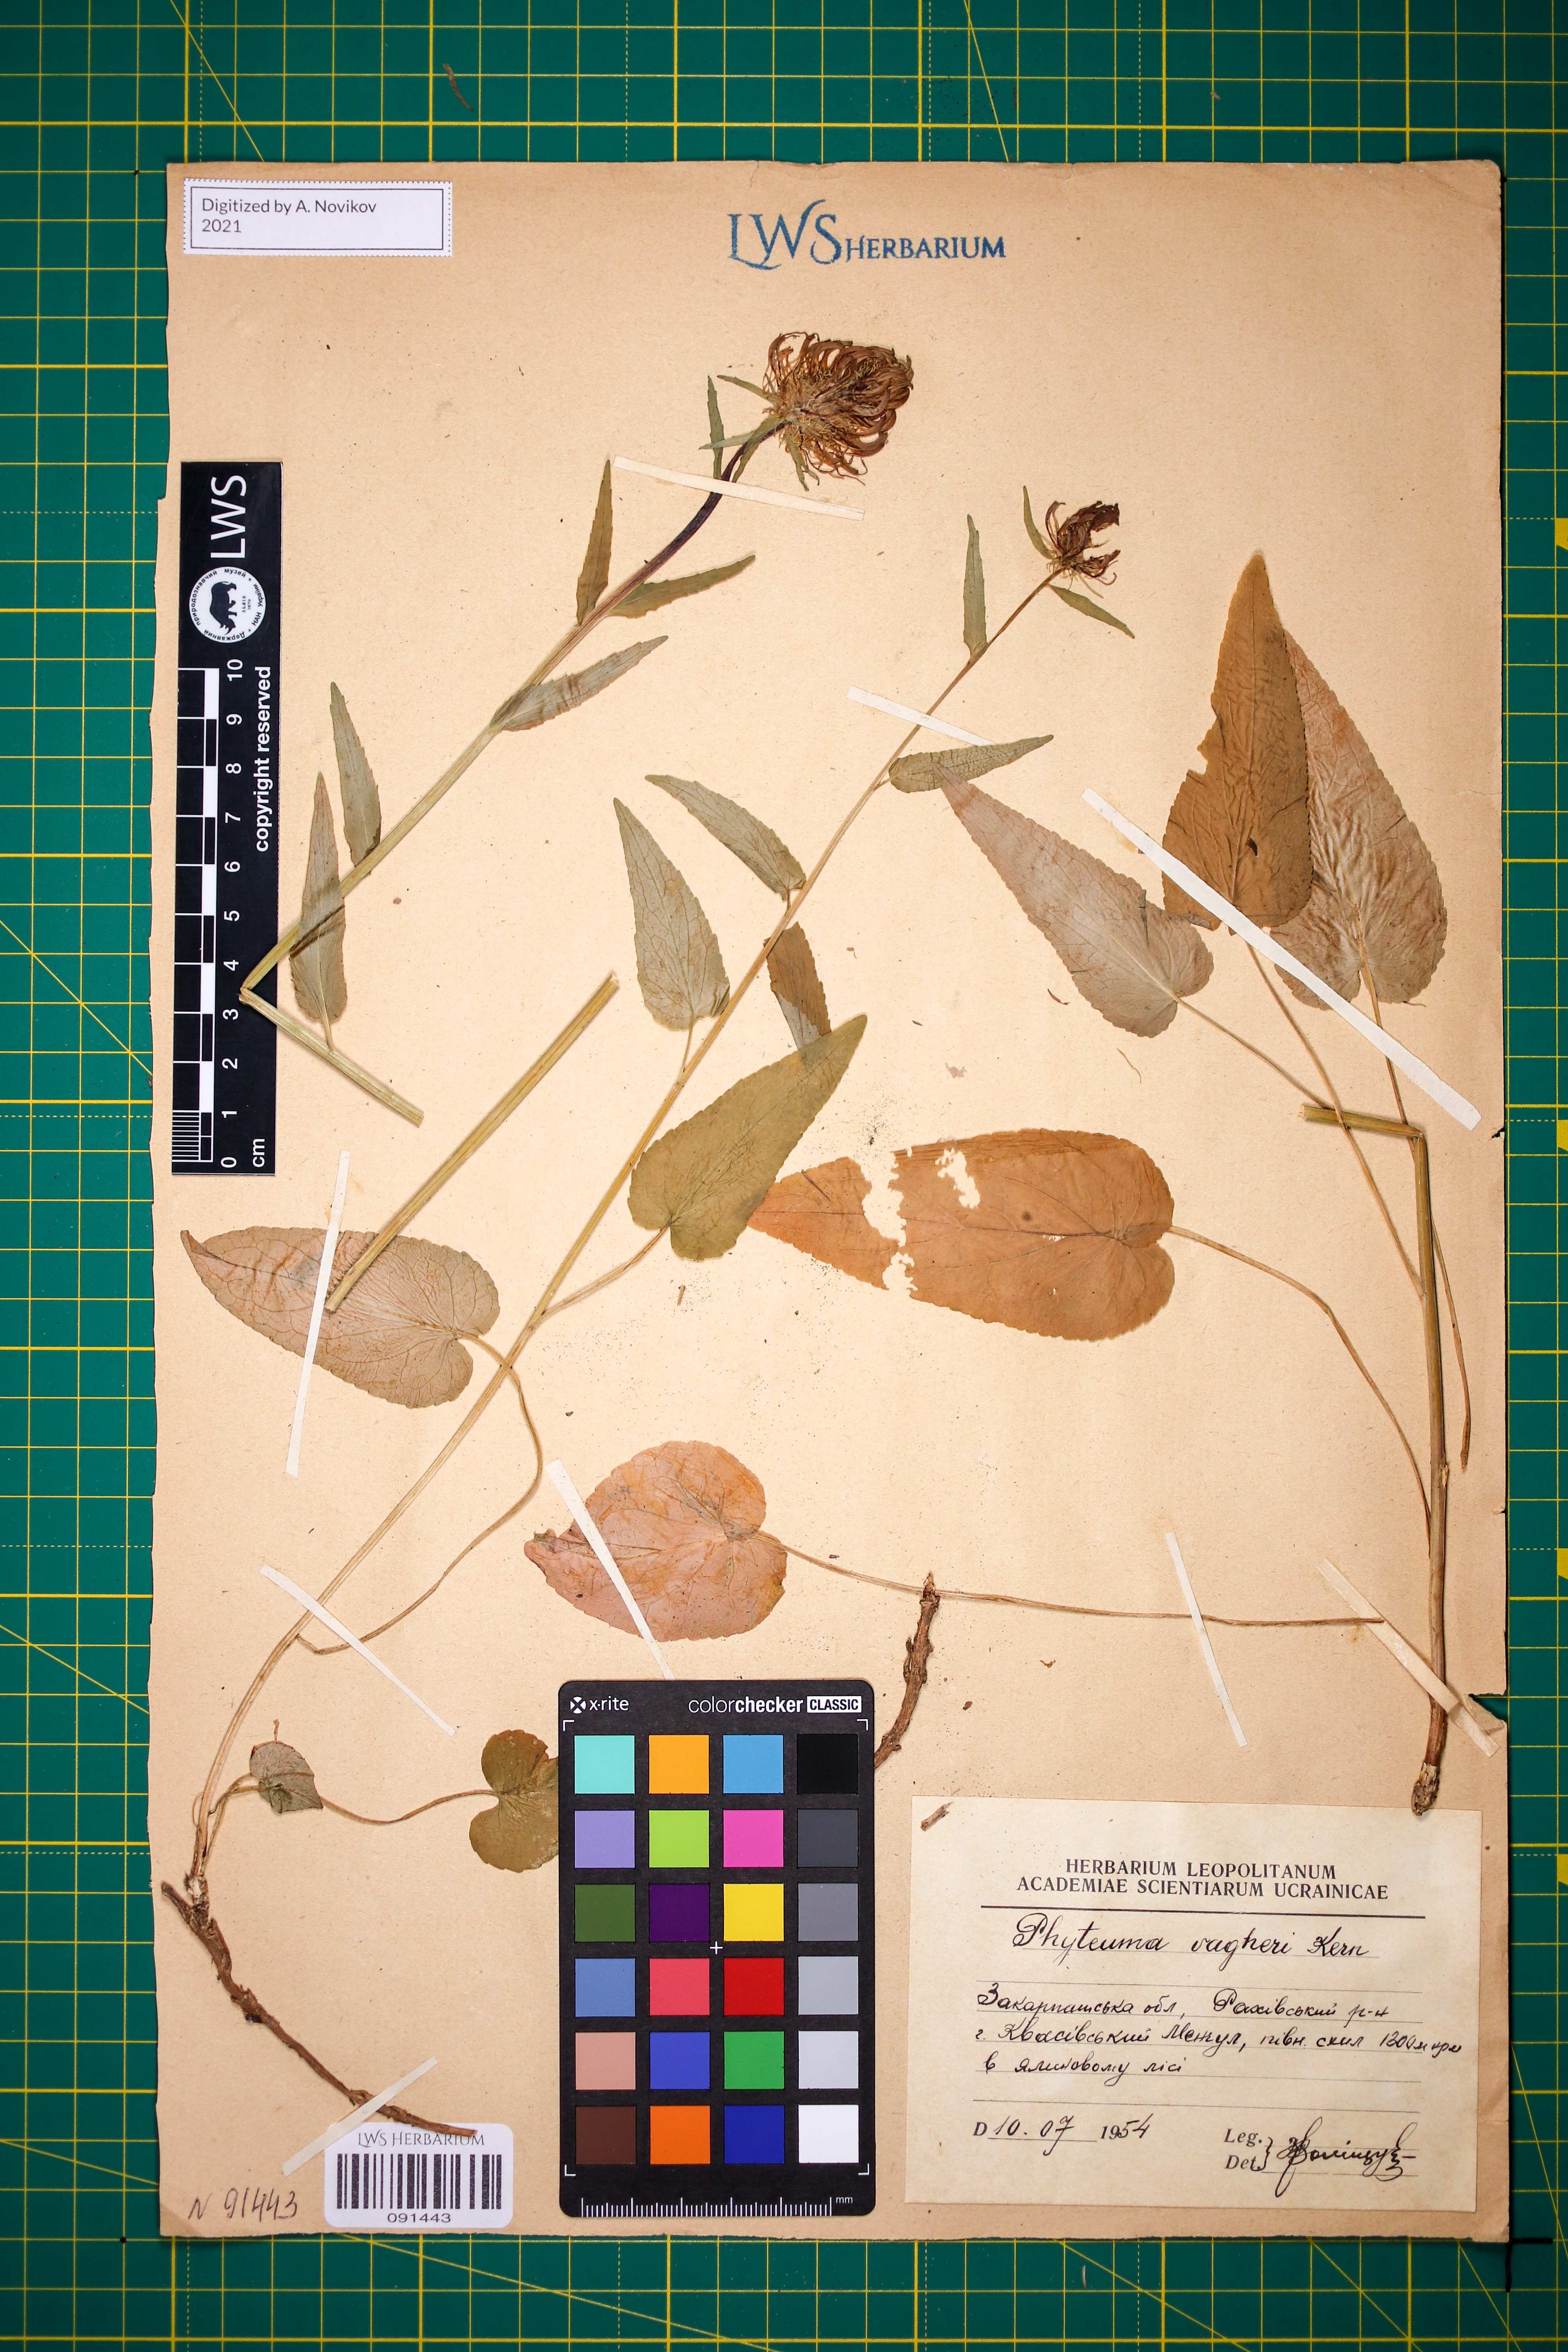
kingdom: Plantae
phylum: Tracheophyta
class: Magnoliopsida
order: Asterales
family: Campanulaceae
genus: Phyteuma
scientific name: Phyteuma vagneri
